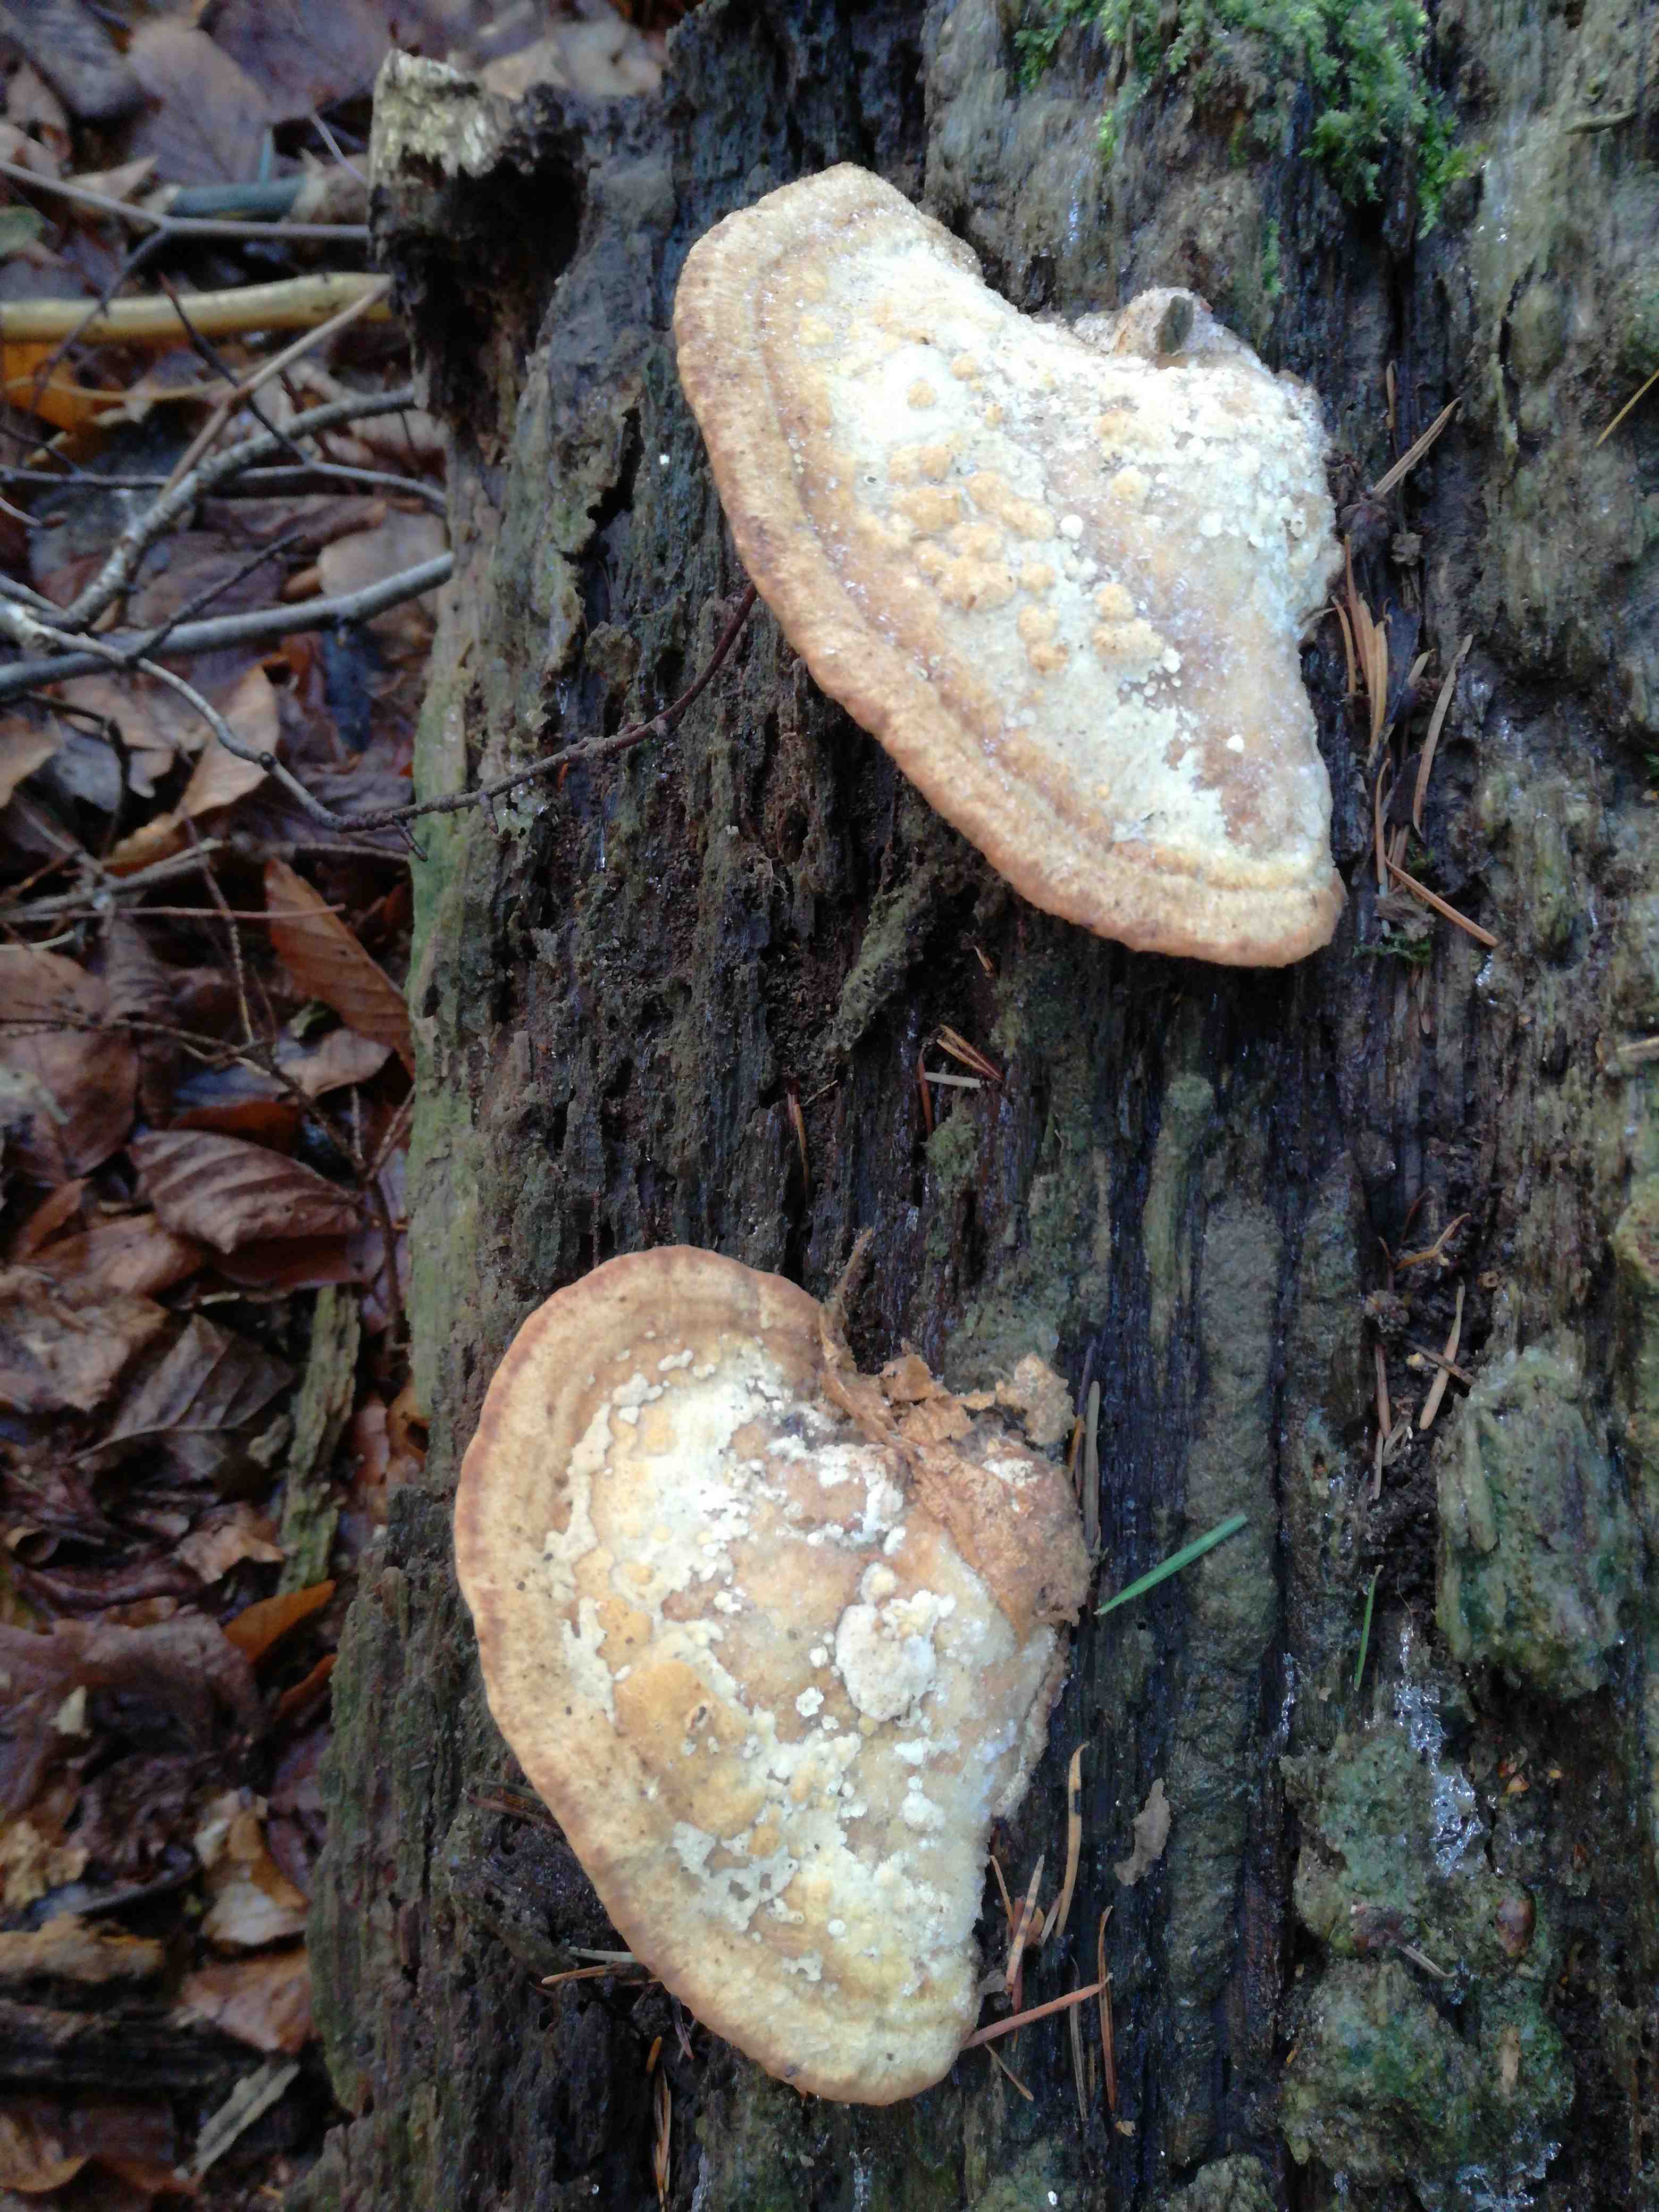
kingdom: Fungi
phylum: Basidiomycota
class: Agaricomycetes
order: Polyporales
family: Fomitopsidaceae
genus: Daedalea
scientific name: Daedalea quercina
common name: ege-labyrintsvamp
